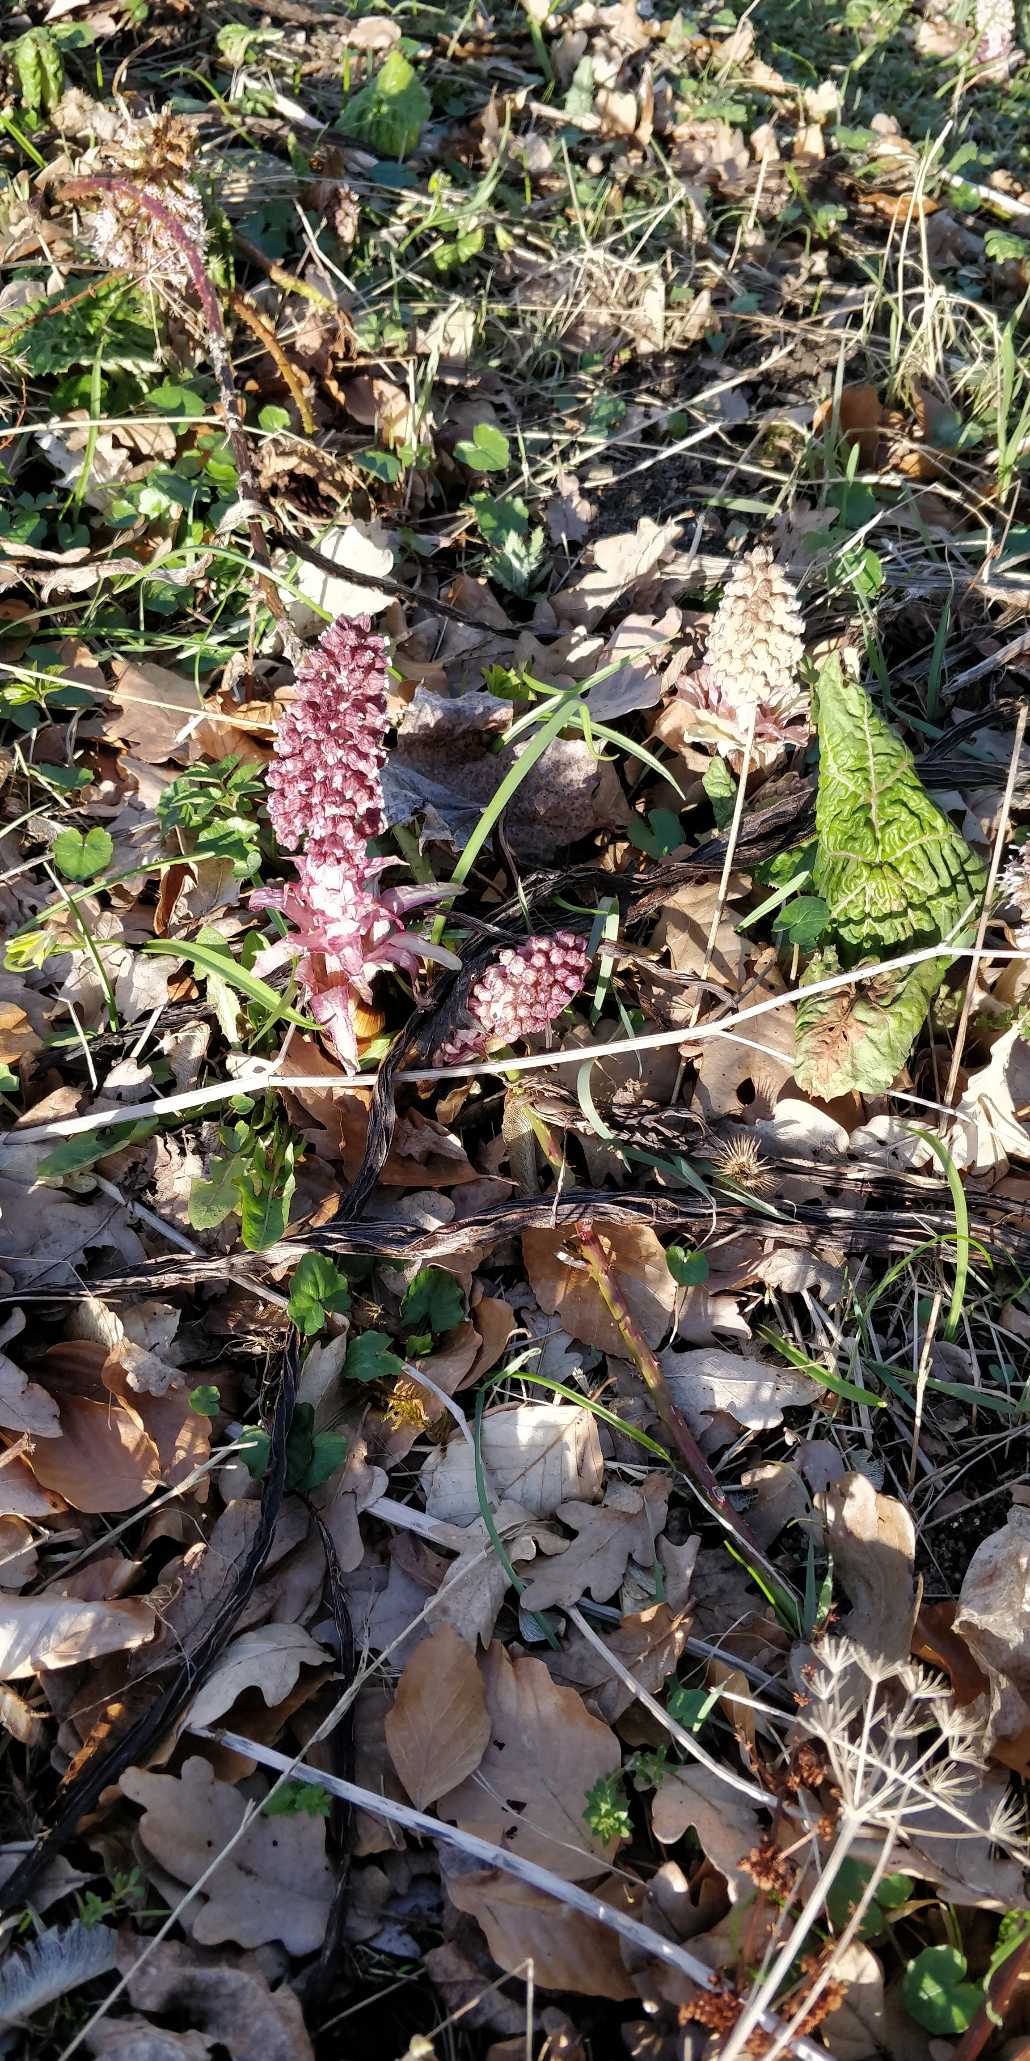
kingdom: Plantae
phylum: Tracheophyta
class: Magnoliopsida
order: Asterales
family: Asteraceae
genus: Petasites
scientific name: Petasites hybridus
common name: Rød hestehov
